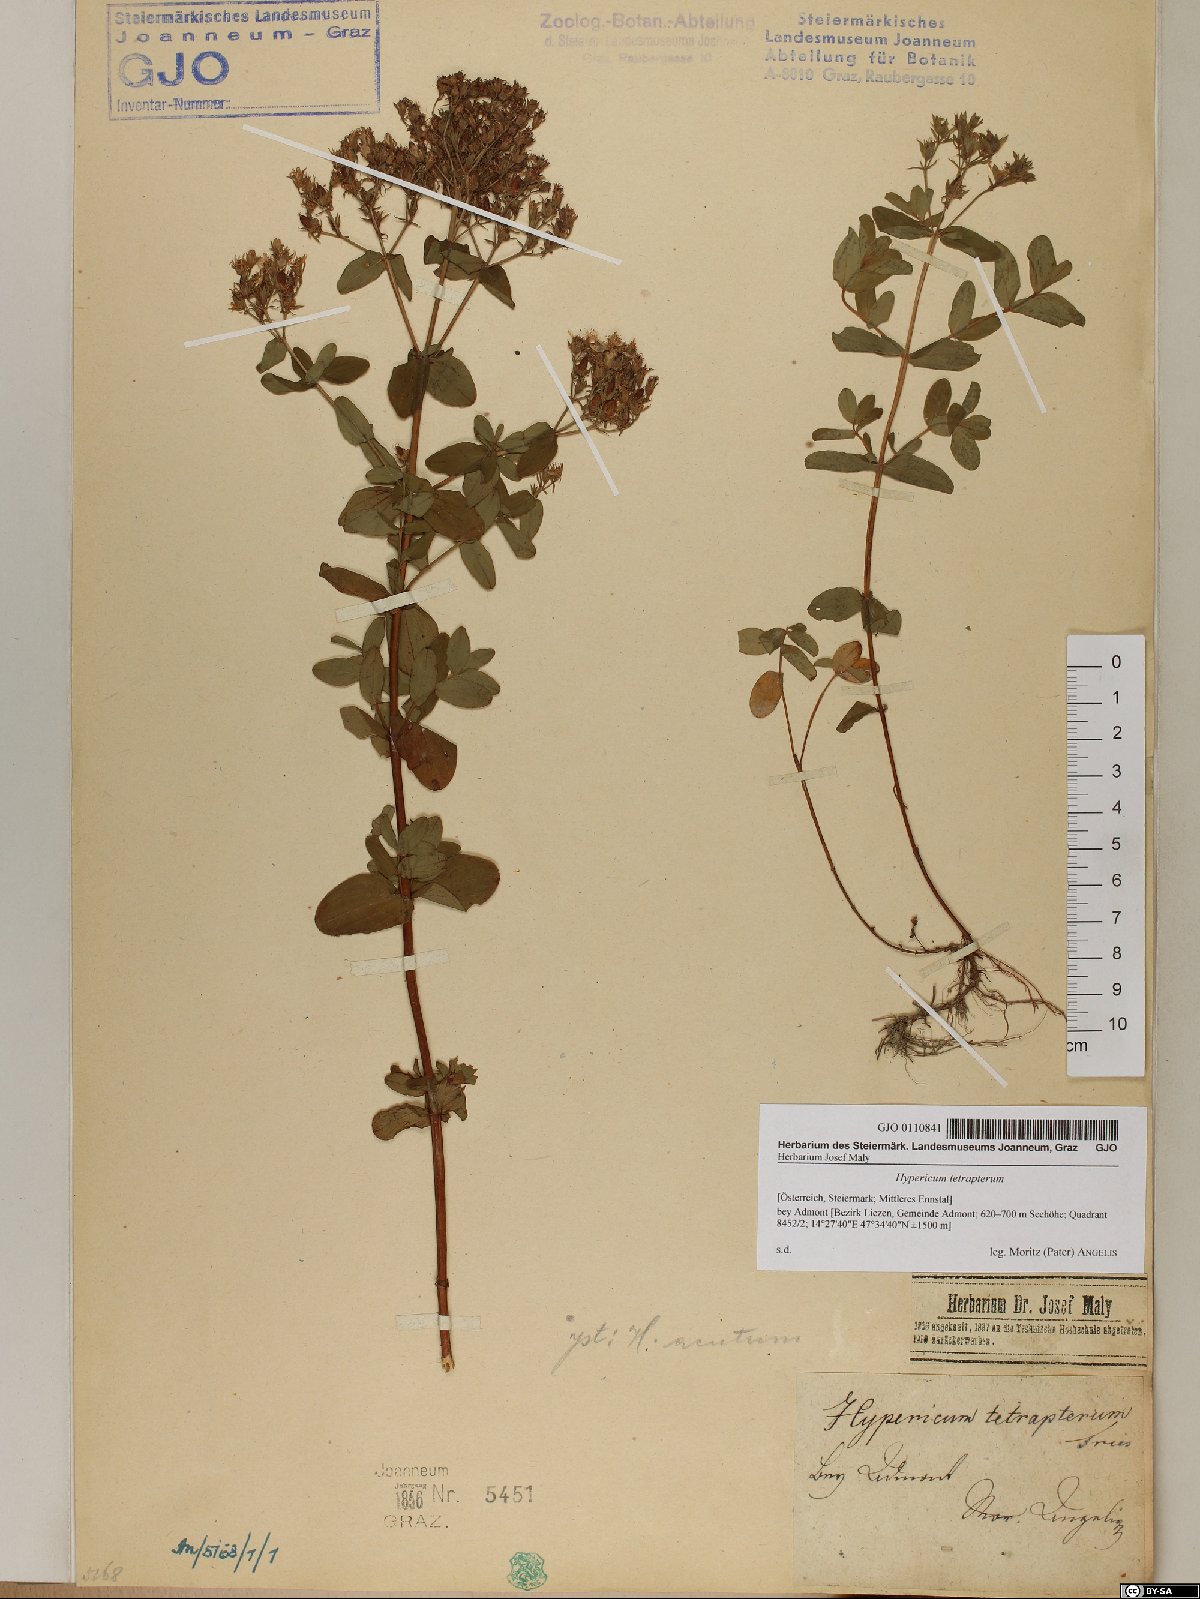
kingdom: Plantae
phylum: Tracheophyta
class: Magnoliopsida
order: Malpighiales
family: Hypericaceae
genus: Hypericum
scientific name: Hypericum tetrapterum
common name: Square-stalked st. john's-wort
